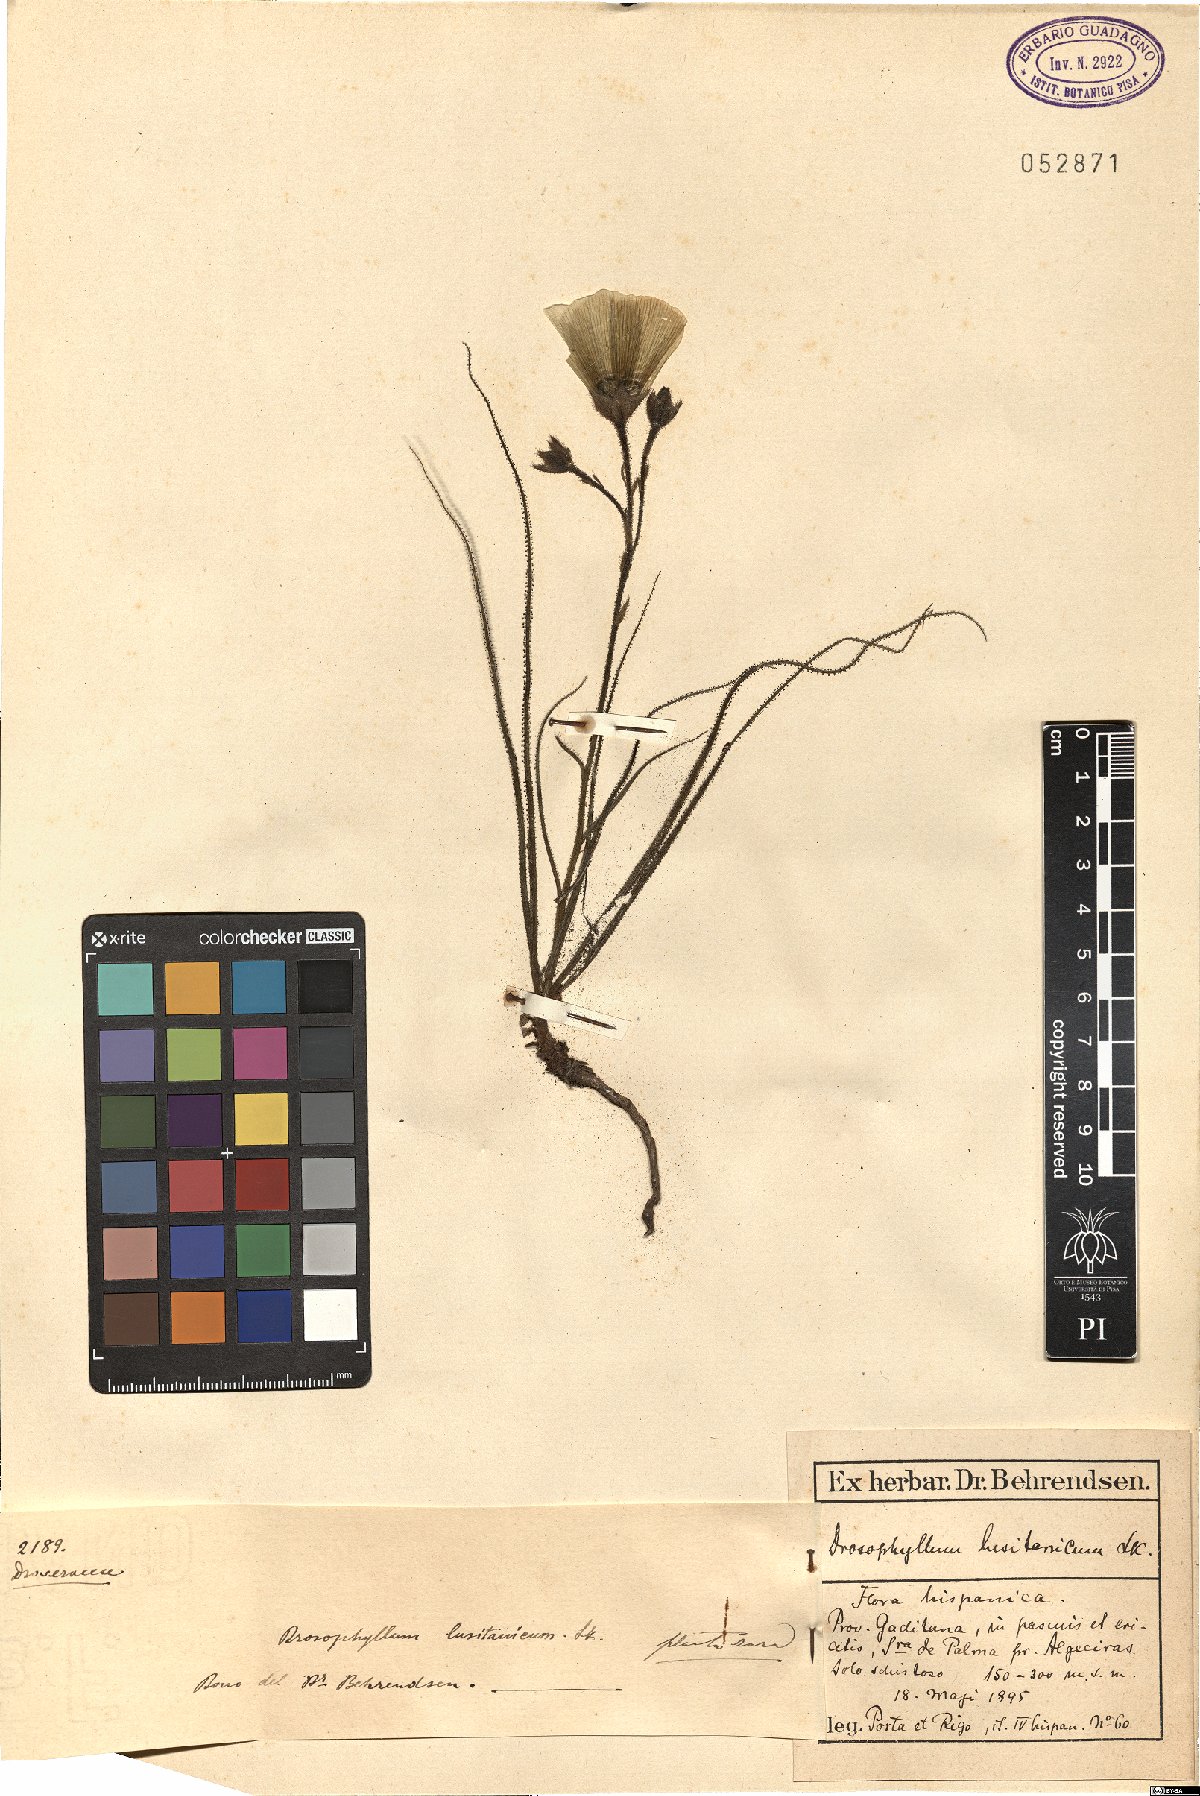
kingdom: Plantae
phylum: Tracheophyta
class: Magnoliopsida
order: Caryophyllales
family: Drosophyllaceae
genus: Drosophyllum
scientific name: Drosophyllum lusitanicum
